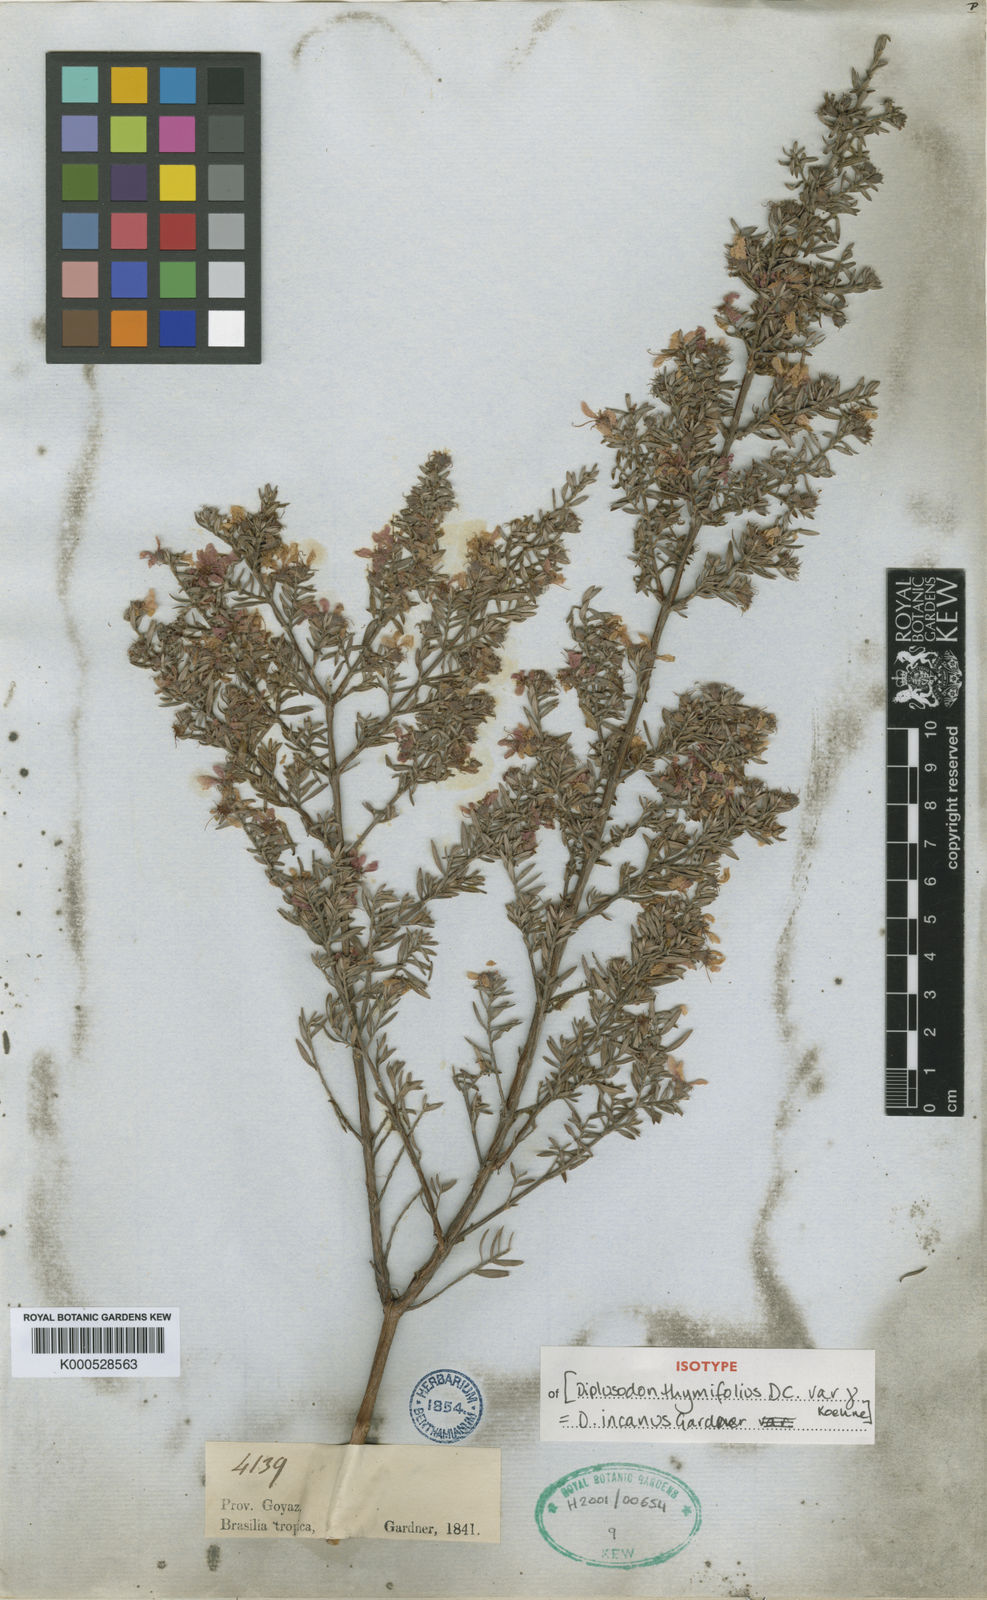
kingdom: Plantae
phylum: Tracheophyta
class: Magnoliopsida
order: Myrtales
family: Lythraceae
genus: Diplusodon
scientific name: Diplusodon incanus
